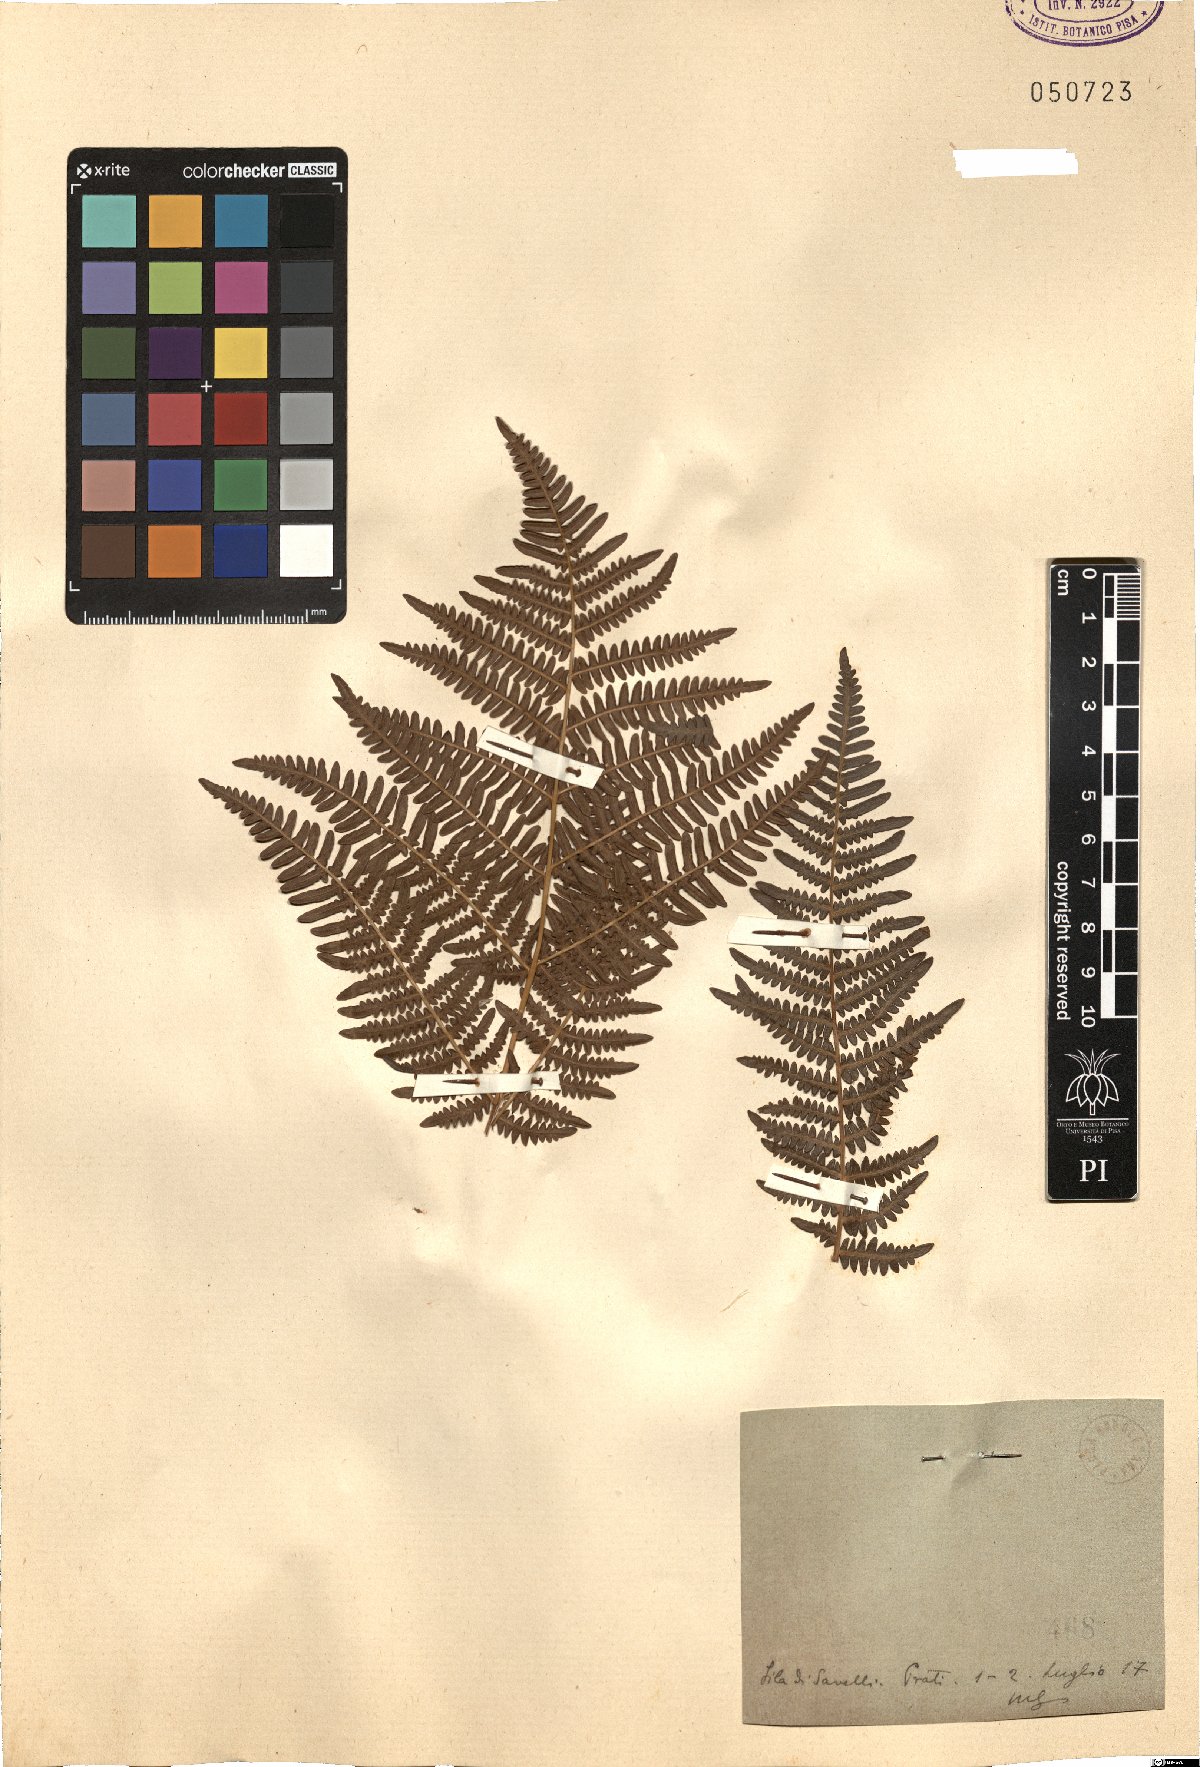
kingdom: Plantae
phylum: Tracheophyta
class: Polypodiopsida
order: Polypodiales
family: Dennstaedtiaceae
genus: Pteridium
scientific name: Pteridium aquilinum
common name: Bracken
